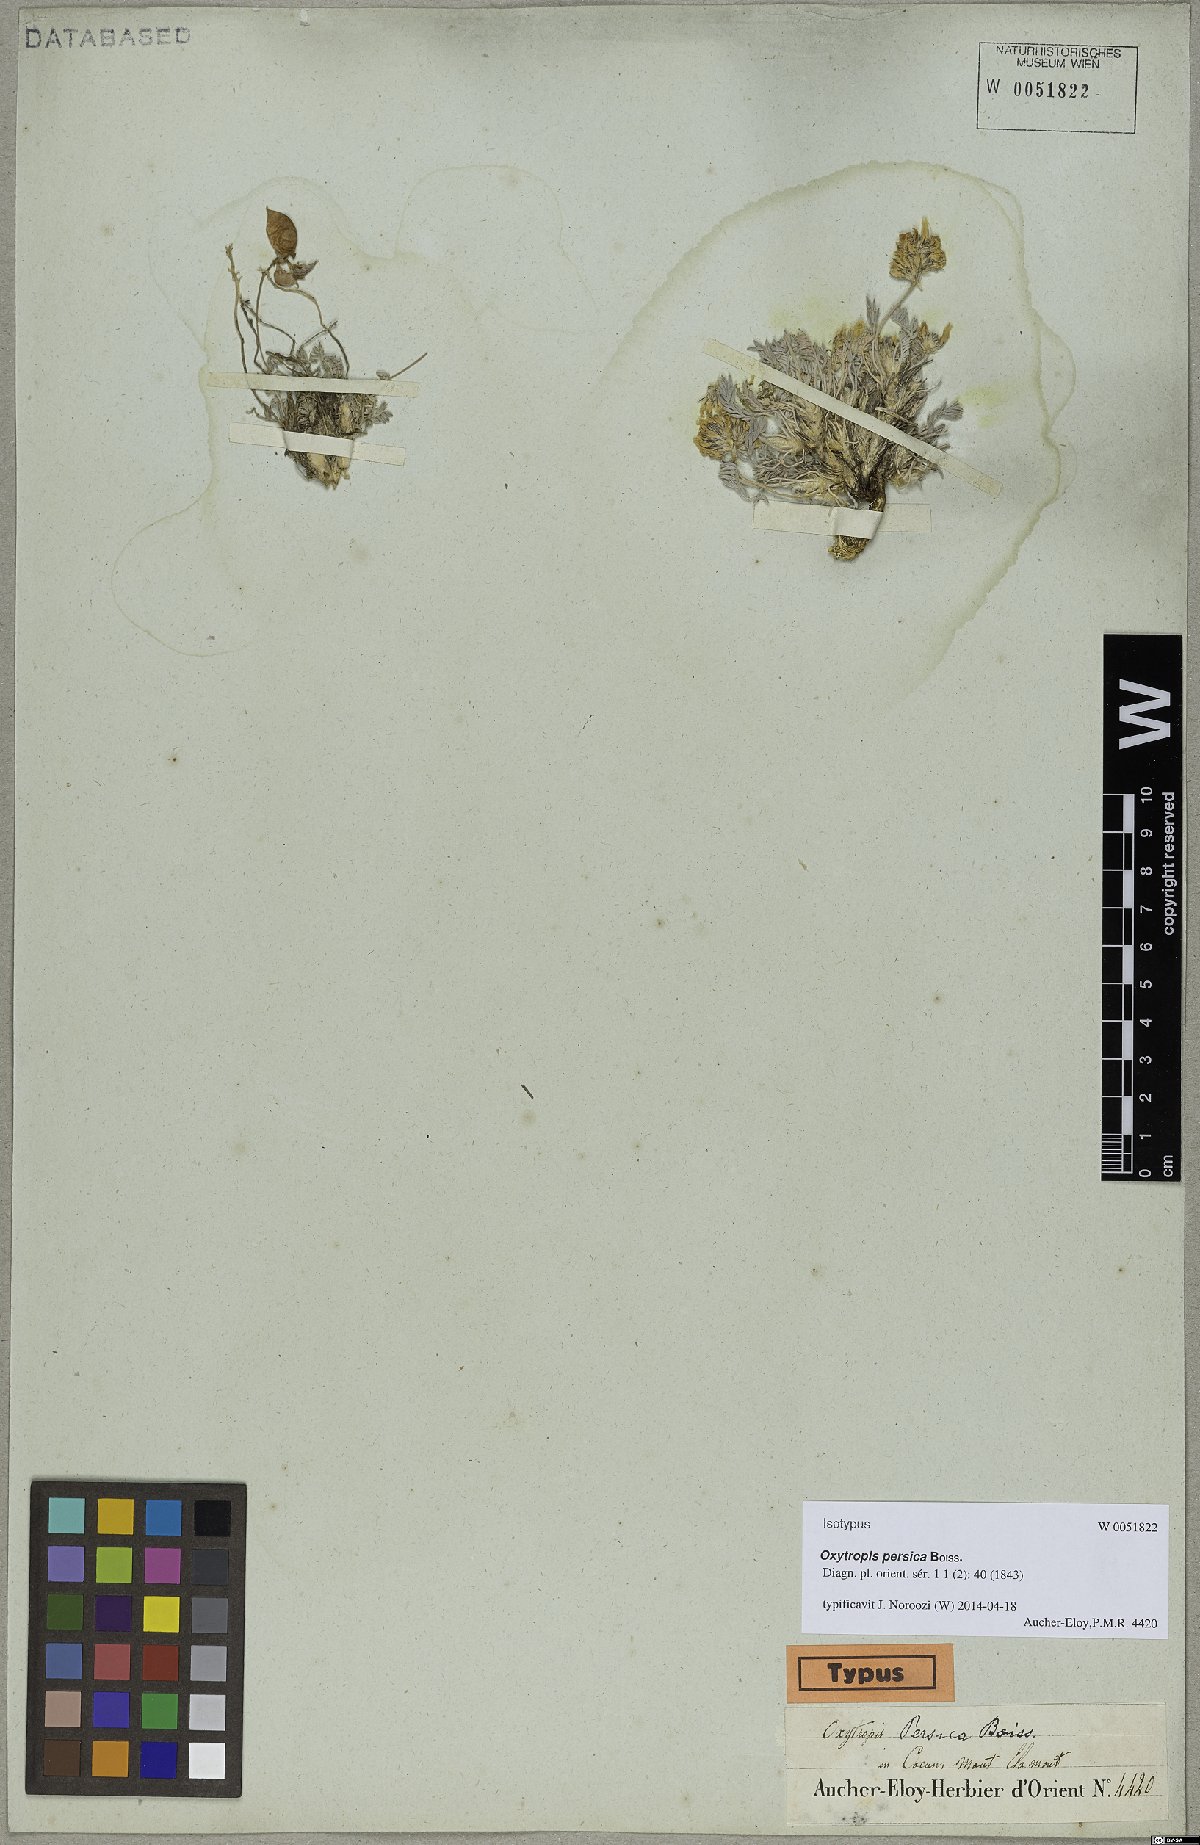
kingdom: Plantae
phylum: Tracheophyta
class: Magnoliopsida
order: Fabales
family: Fabaceae
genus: Oxytropis
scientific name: Oxytropis persica
